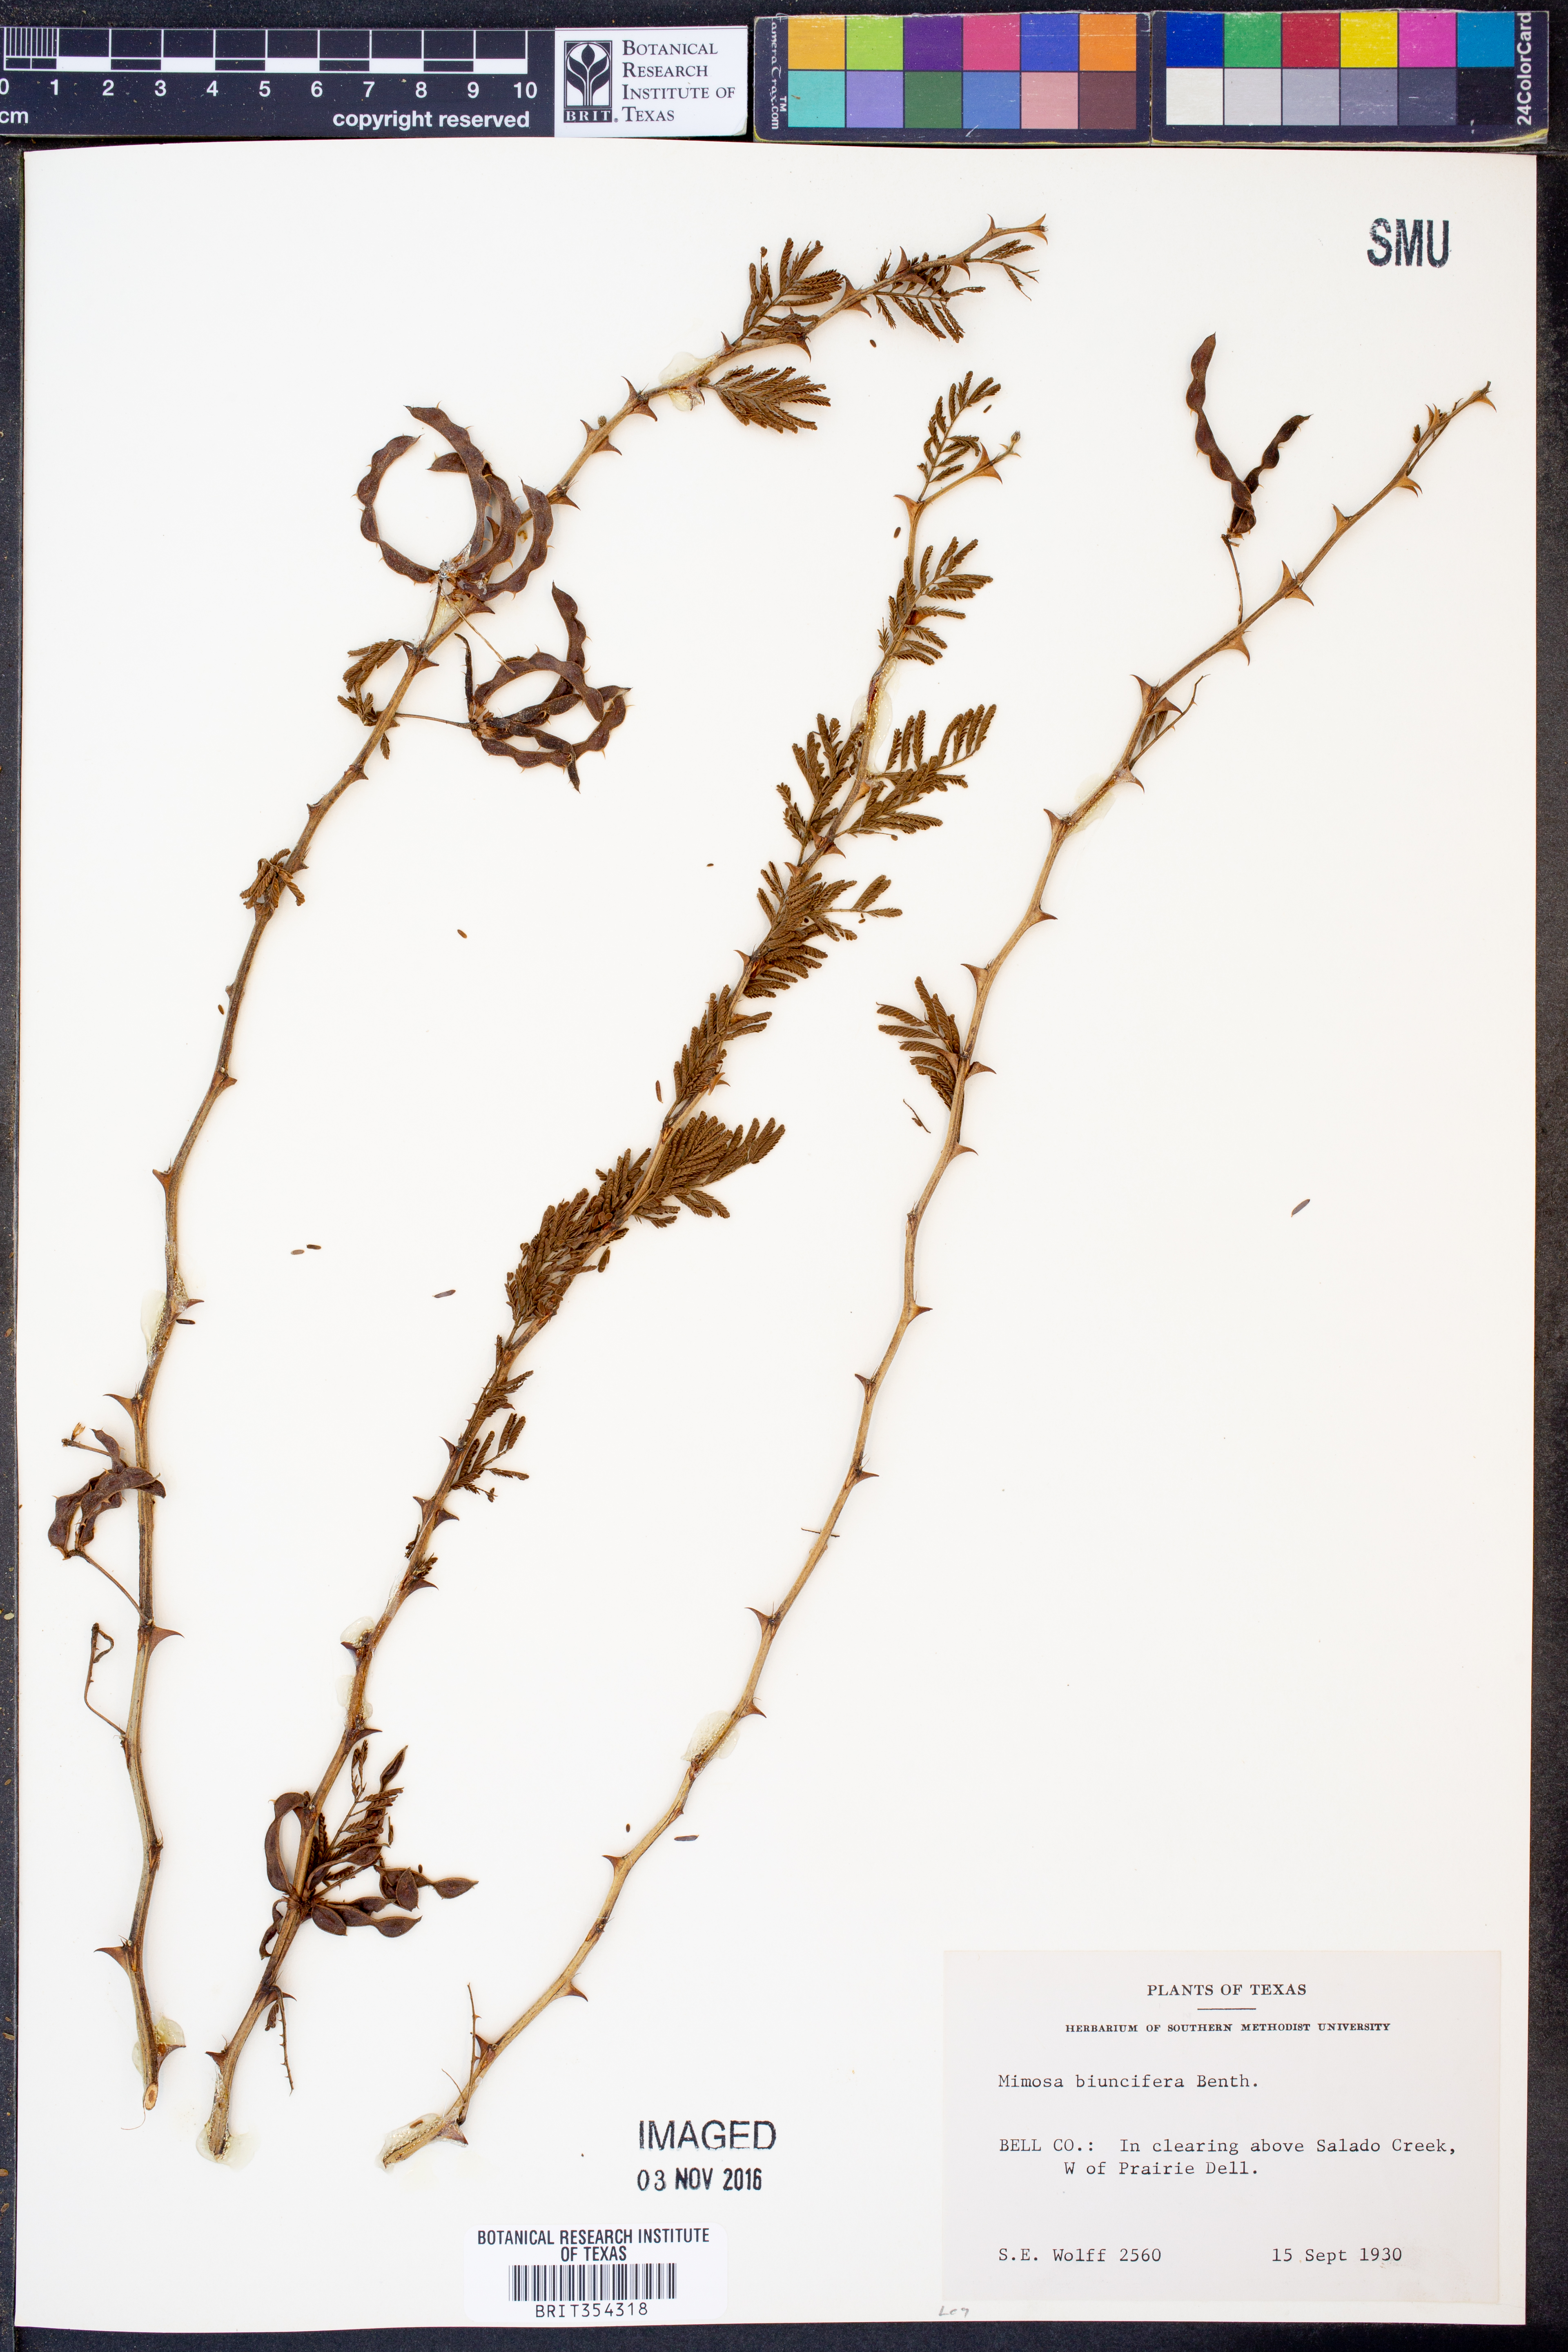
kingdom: Plantae
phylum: Tracheophyta
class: Magnoliopsida
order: Fabales
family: Fabaceae
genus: Mimosa
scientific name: Mimosa biuncifera
